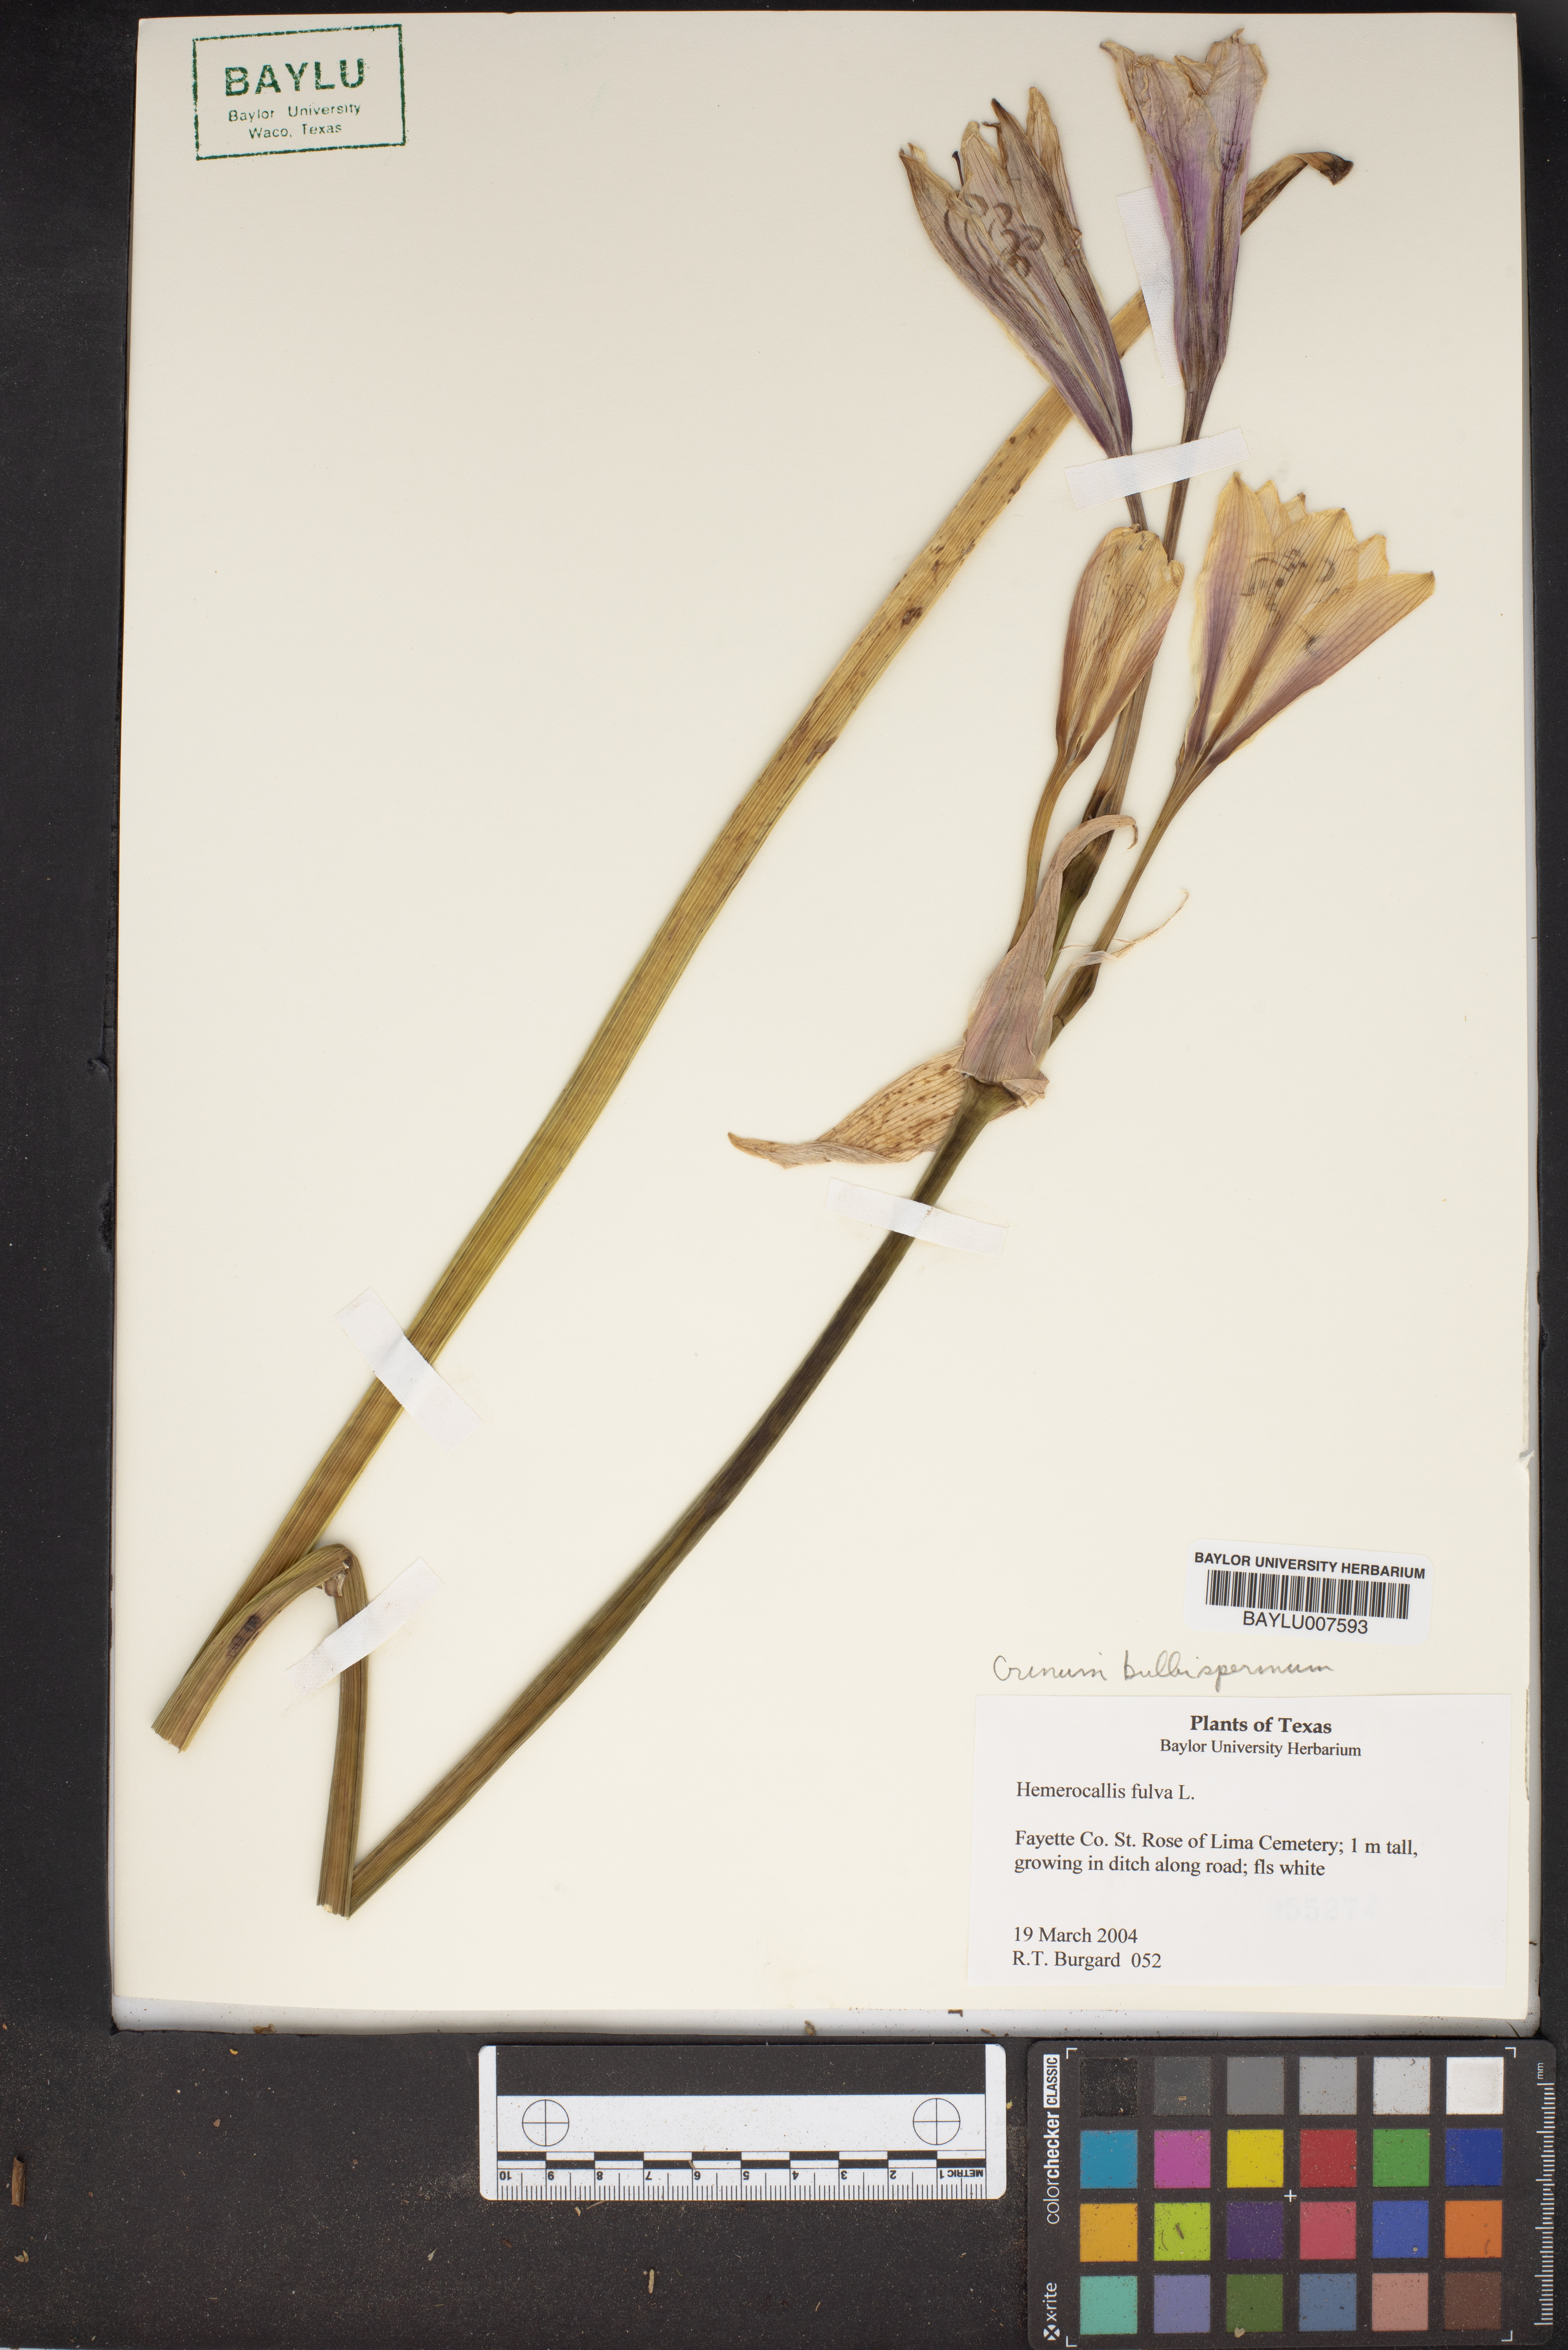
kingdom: Plantae
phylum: Tracheophyta
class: Liliopsida
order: Asparagales
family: Amaryllidaceae
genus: Crinum
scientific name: Crinum bulbispermum
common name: Hardy swamplily
